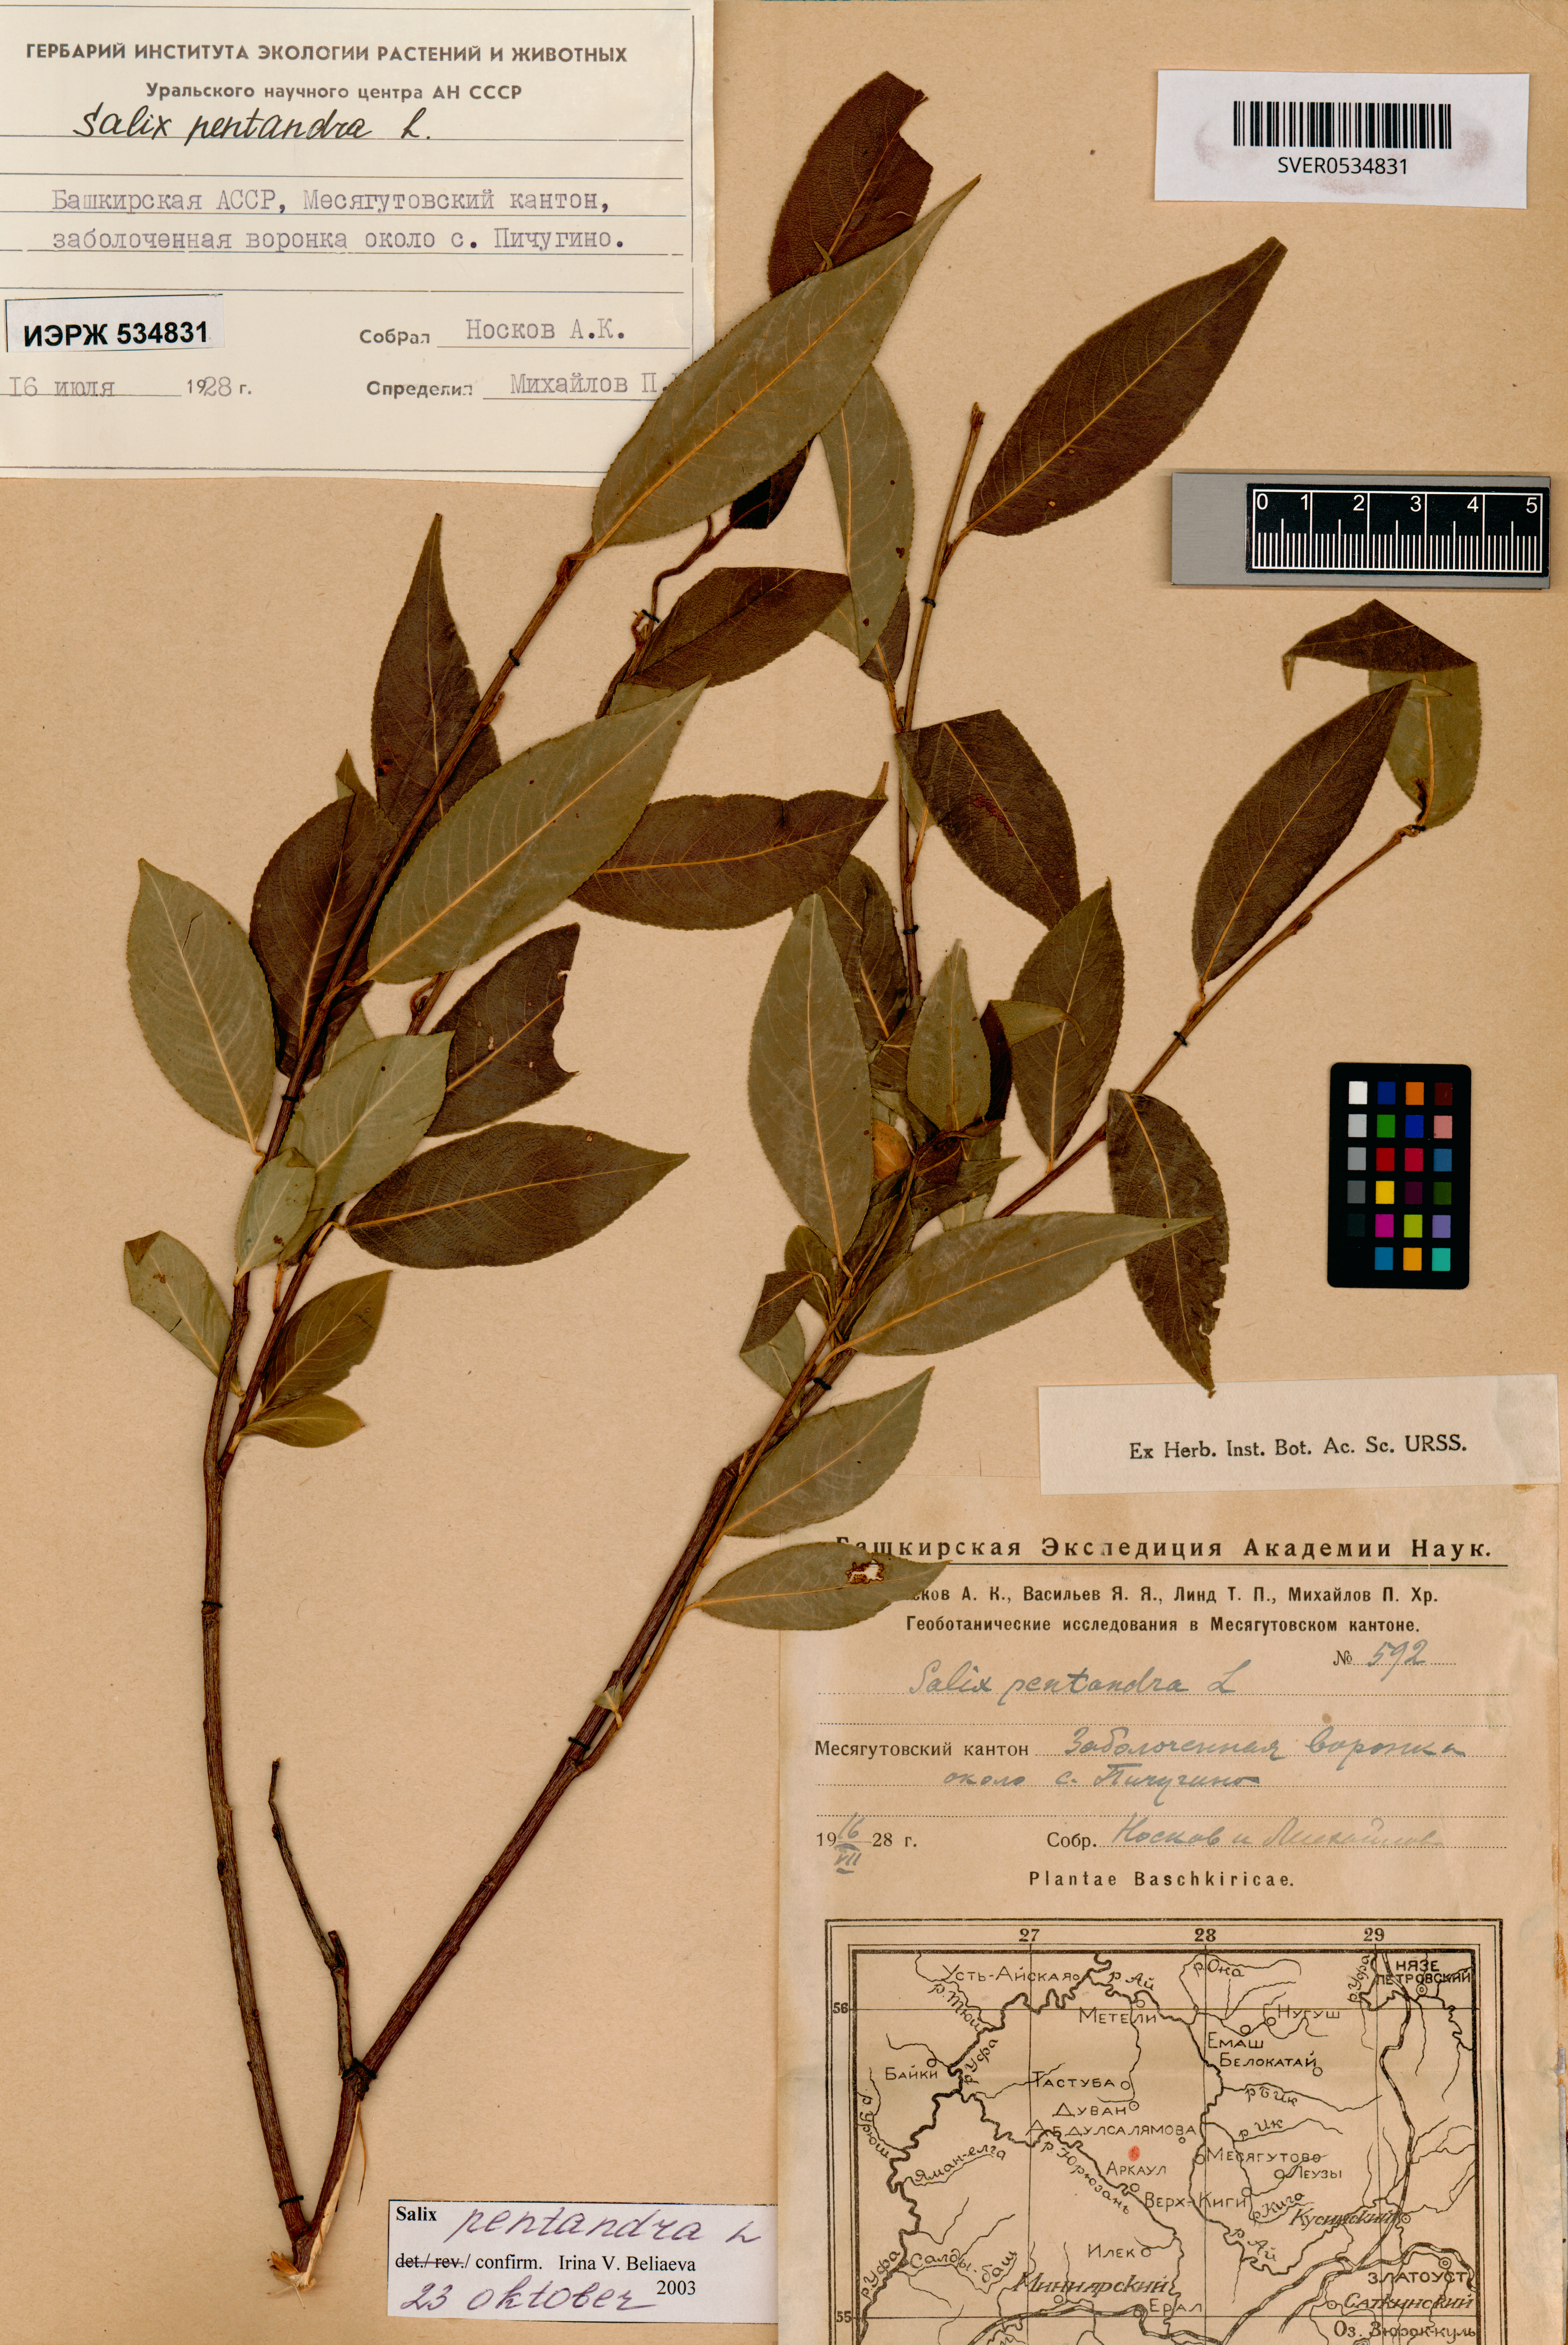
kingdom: Plantae
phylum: Tracheophyta
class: Magnoliopsida
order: Malpighiales
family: Salicaceae
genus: Salix
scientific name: Salix pentandra
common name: Bay willow
